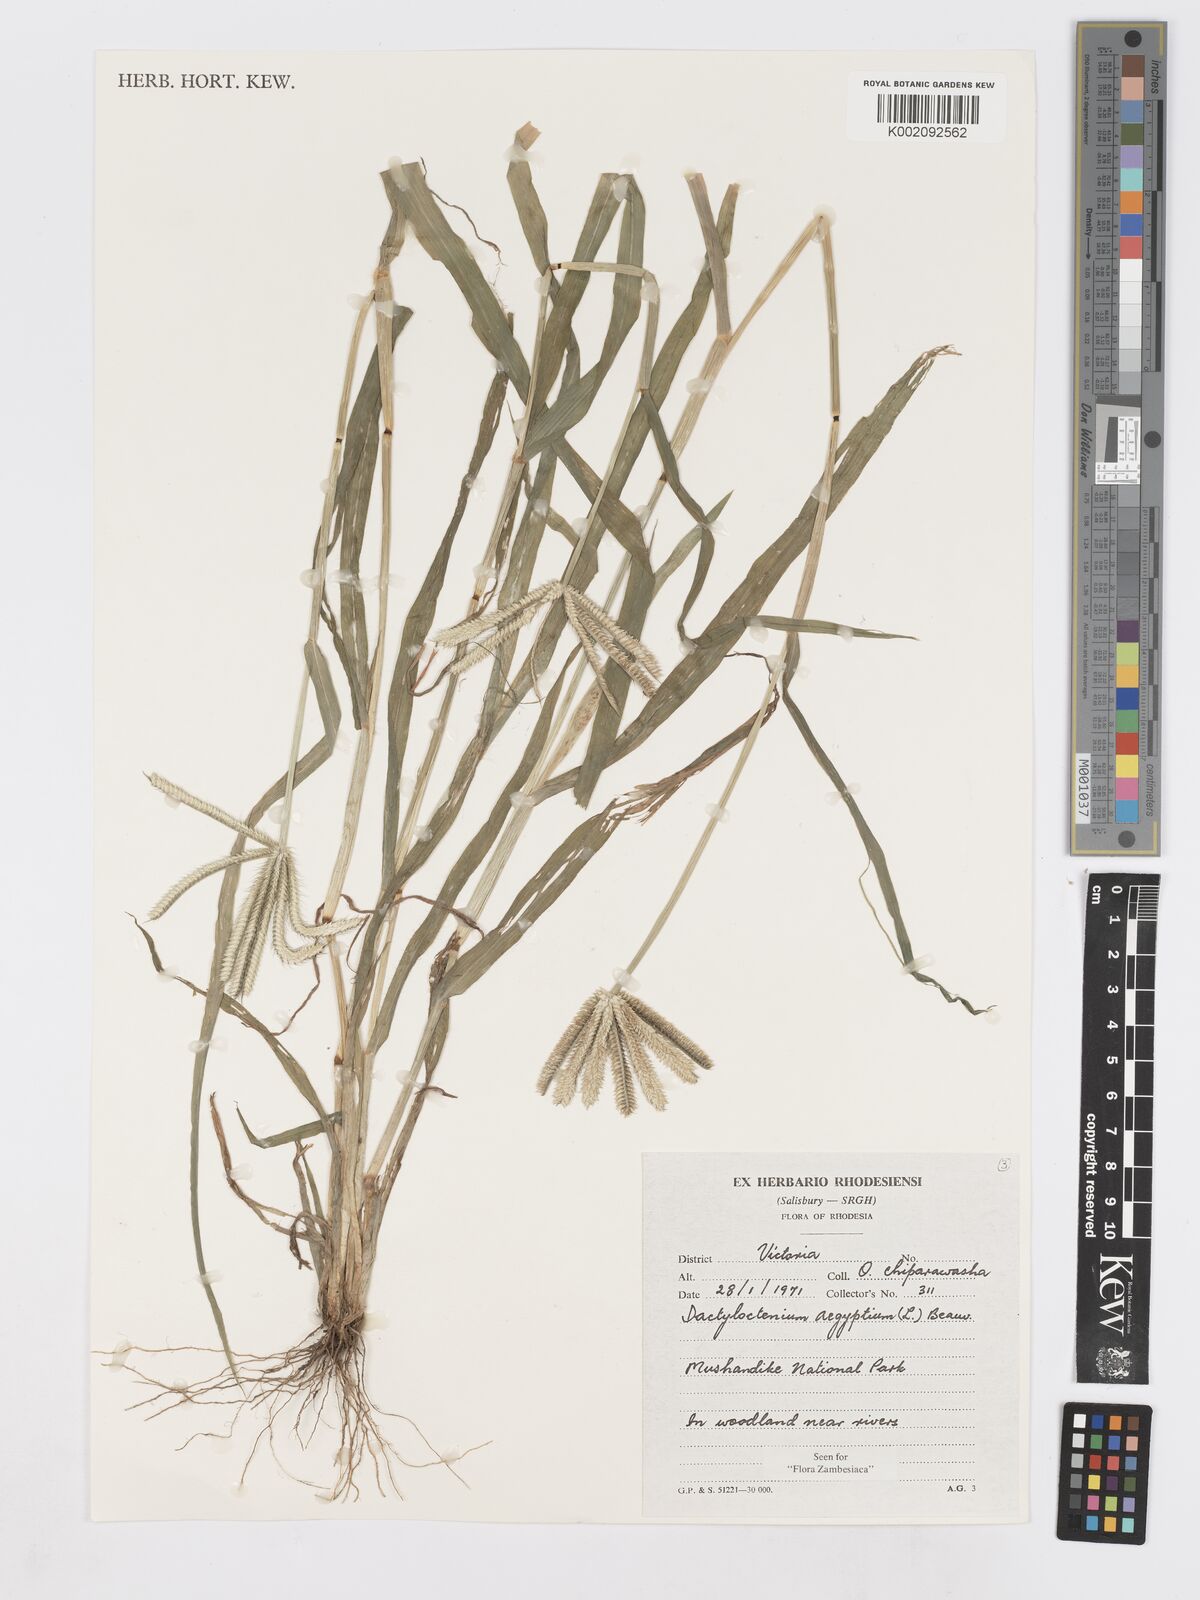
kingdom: Plantae
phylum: Tracheophyta
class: Liliopsida
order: Poales
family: Poaceae
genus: Dactyloctenium
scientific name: Dactyloctenium aegyptium
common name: Egyptian grass
